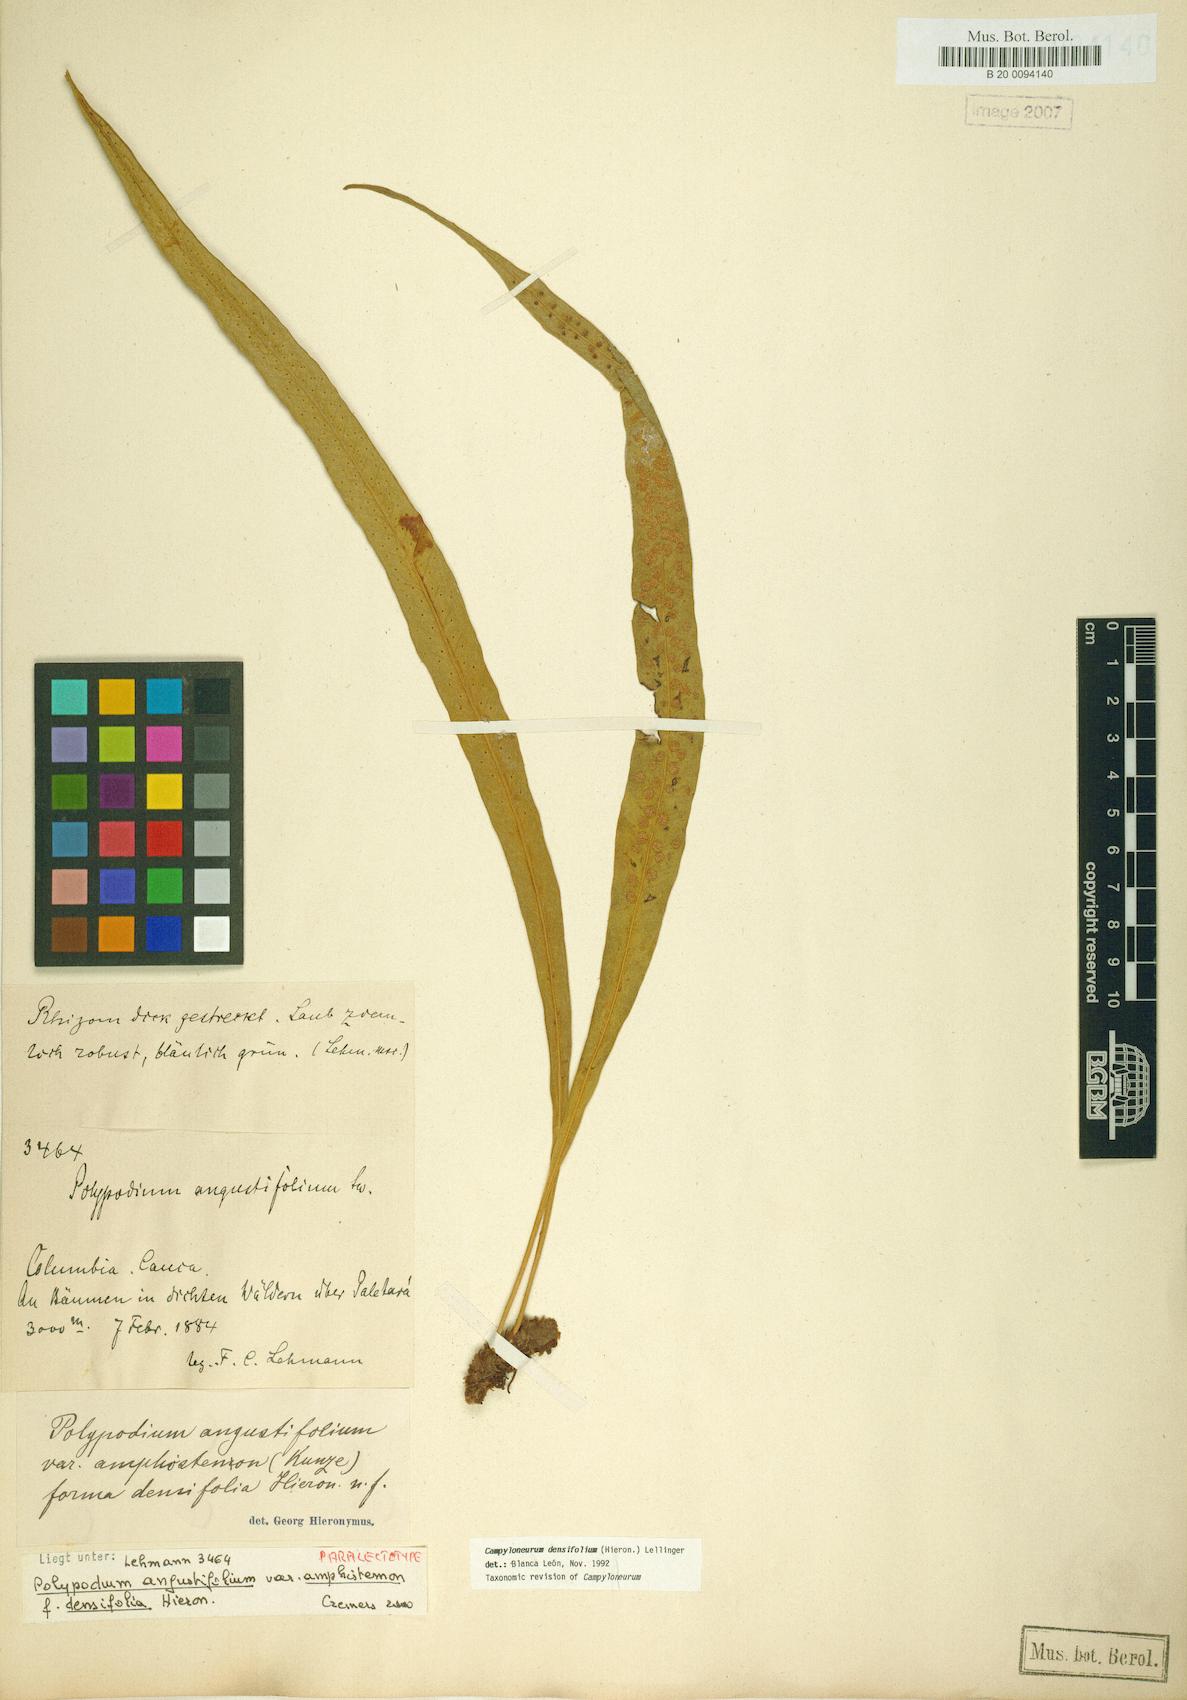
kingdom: Plantae
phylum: Tracheophyta
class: Polypodiopsida
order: Polypodiales
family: Polypodiaceae
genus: Campyloneurum
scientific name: Campyloneurum densifolium
